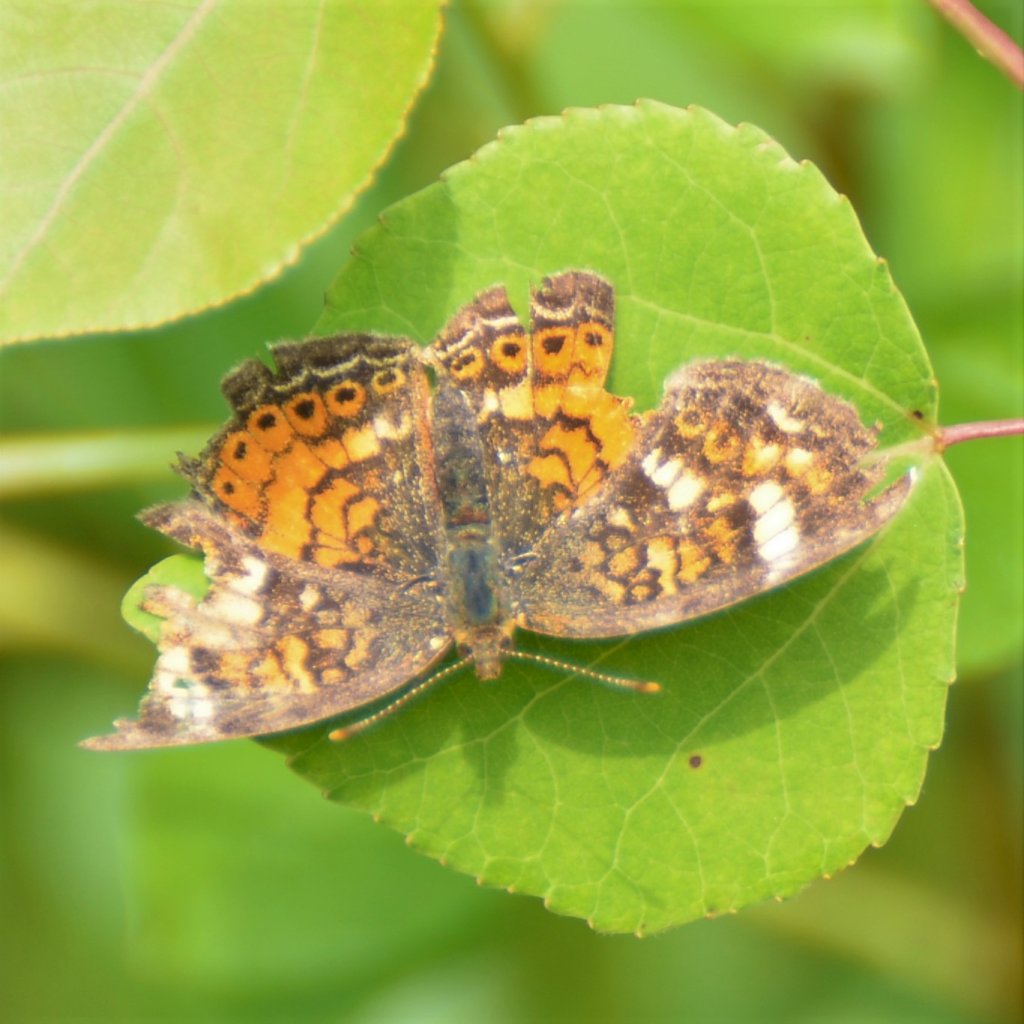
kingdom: Animalia
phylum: Arthropoda
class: Insecta
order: Lepidoptera
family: Nymphalidae
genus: Phyciodes
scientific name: Phyciodes tharos
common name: Northern Crescent
